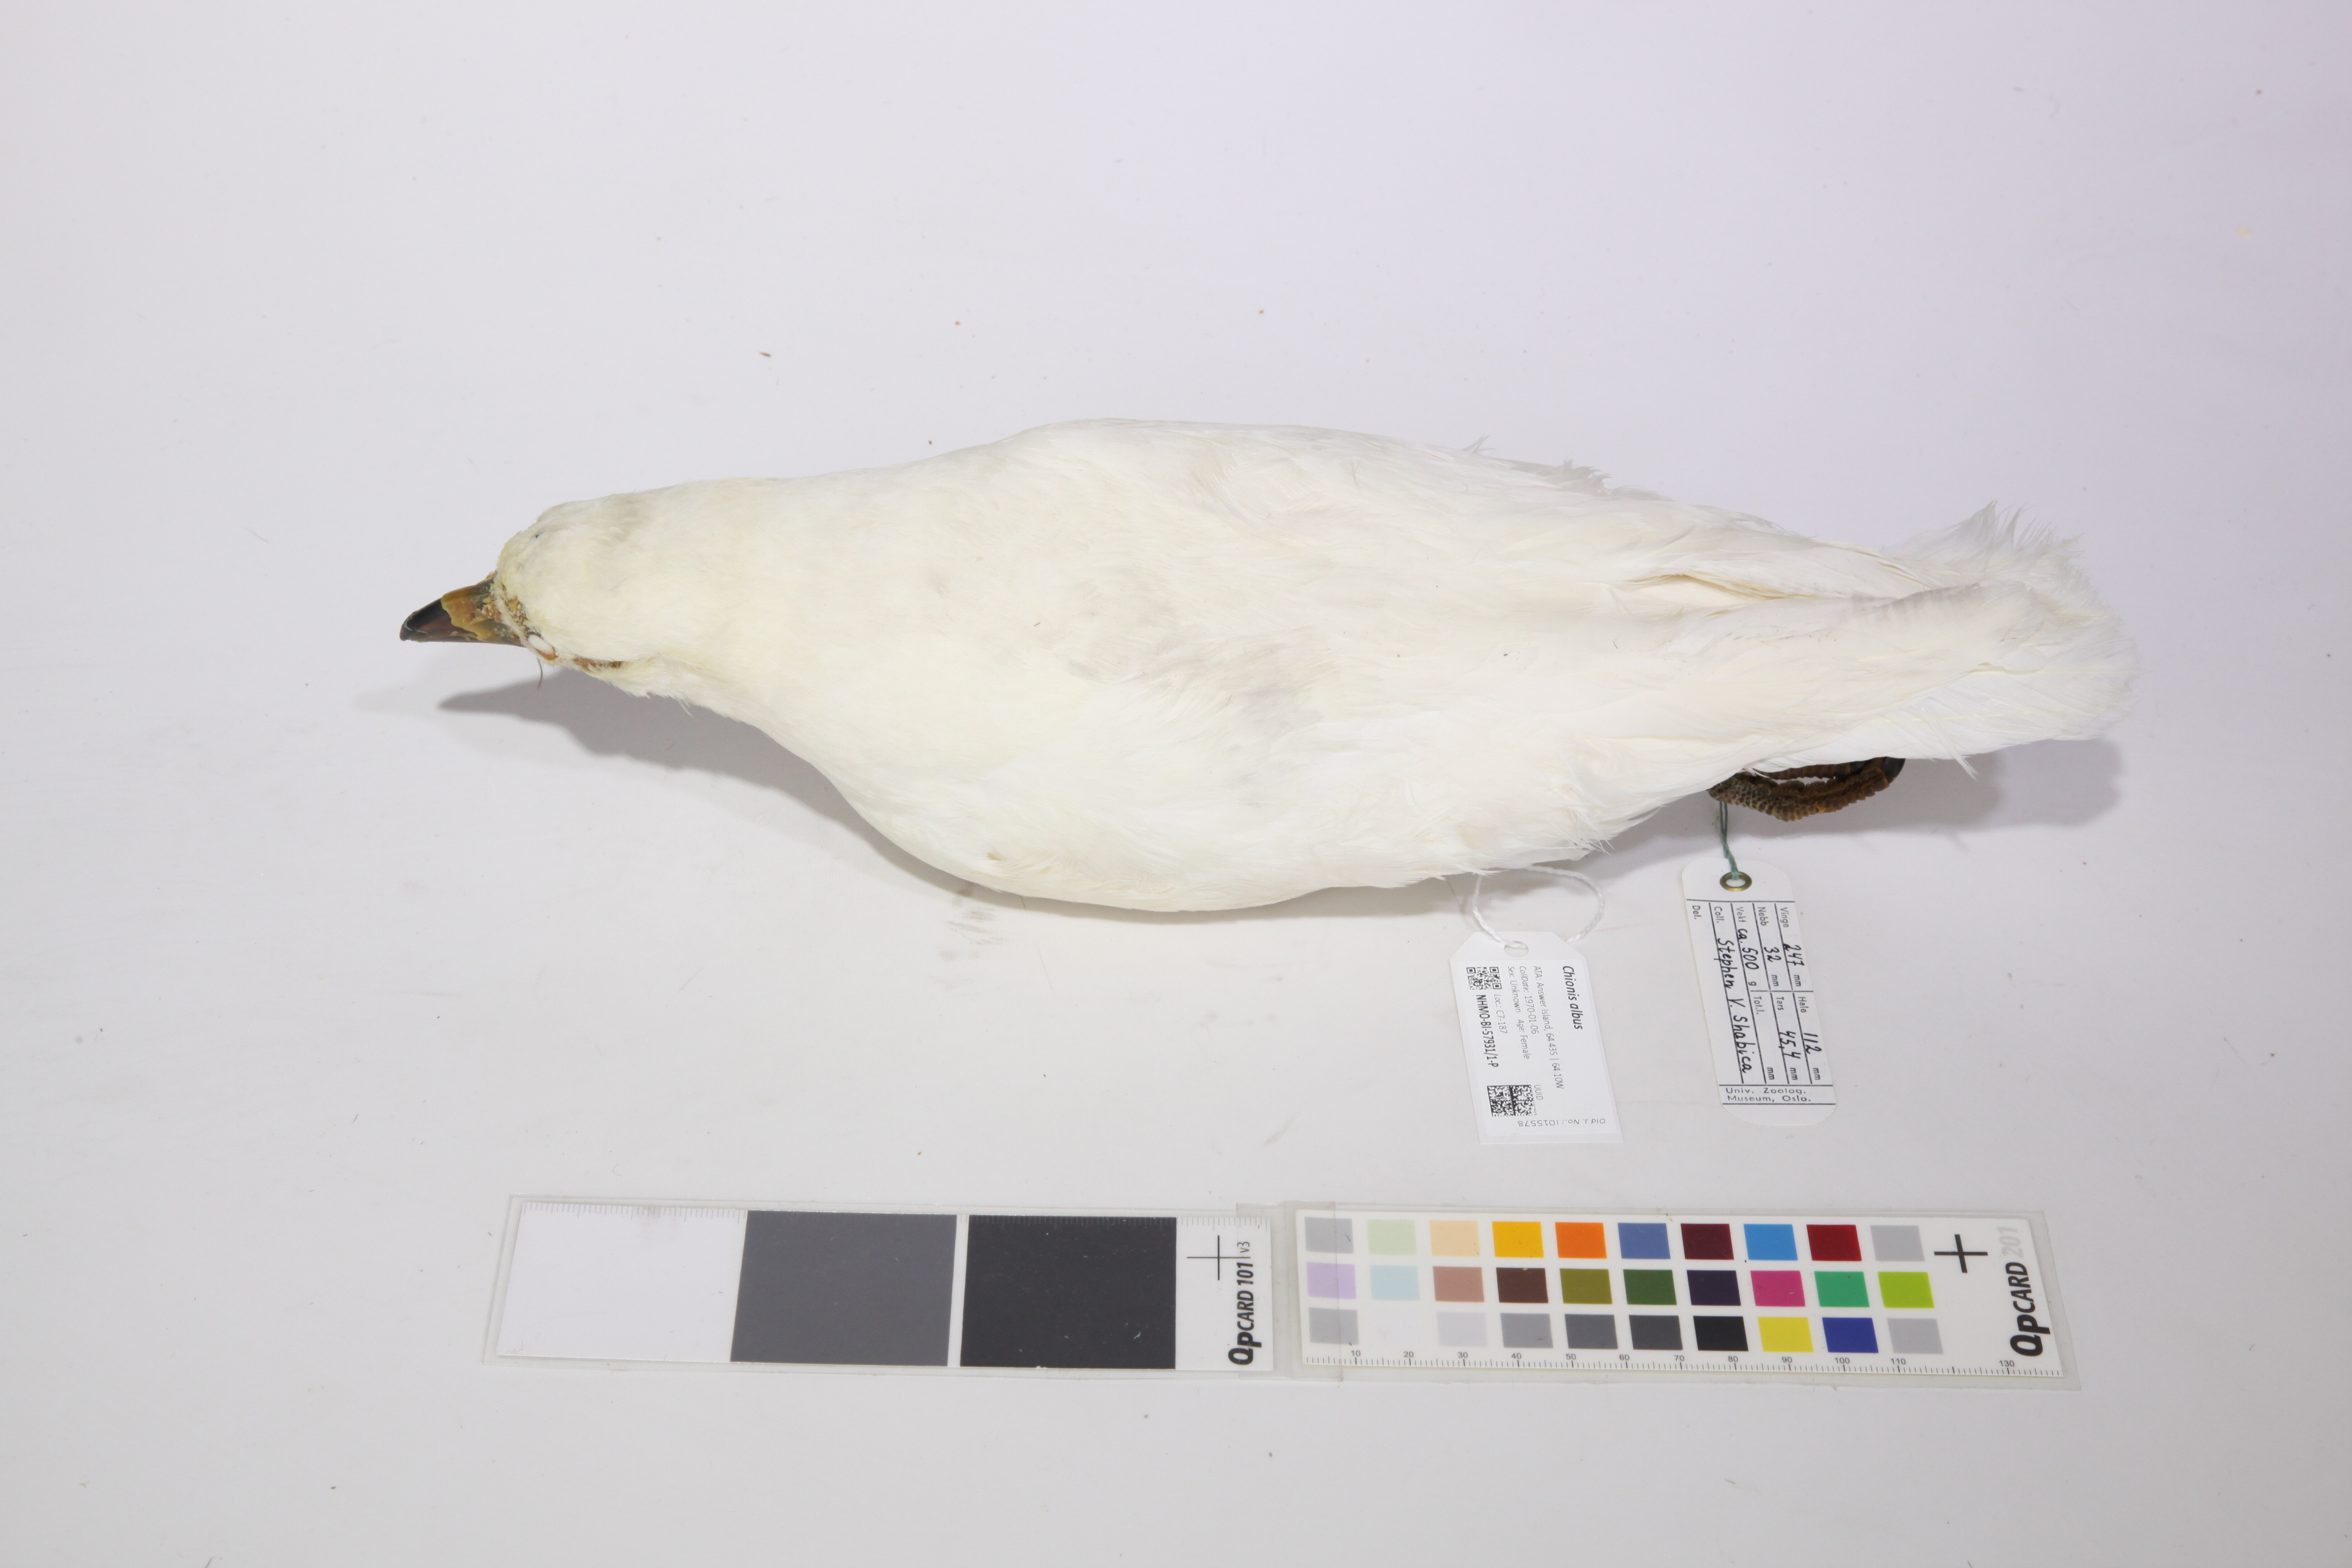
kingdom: Animalia
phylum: Chordata
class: Aves
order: Charadriiformes
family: Chionidae
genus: Chionis
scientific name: Chionis albus
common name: Snowy sheathbill
